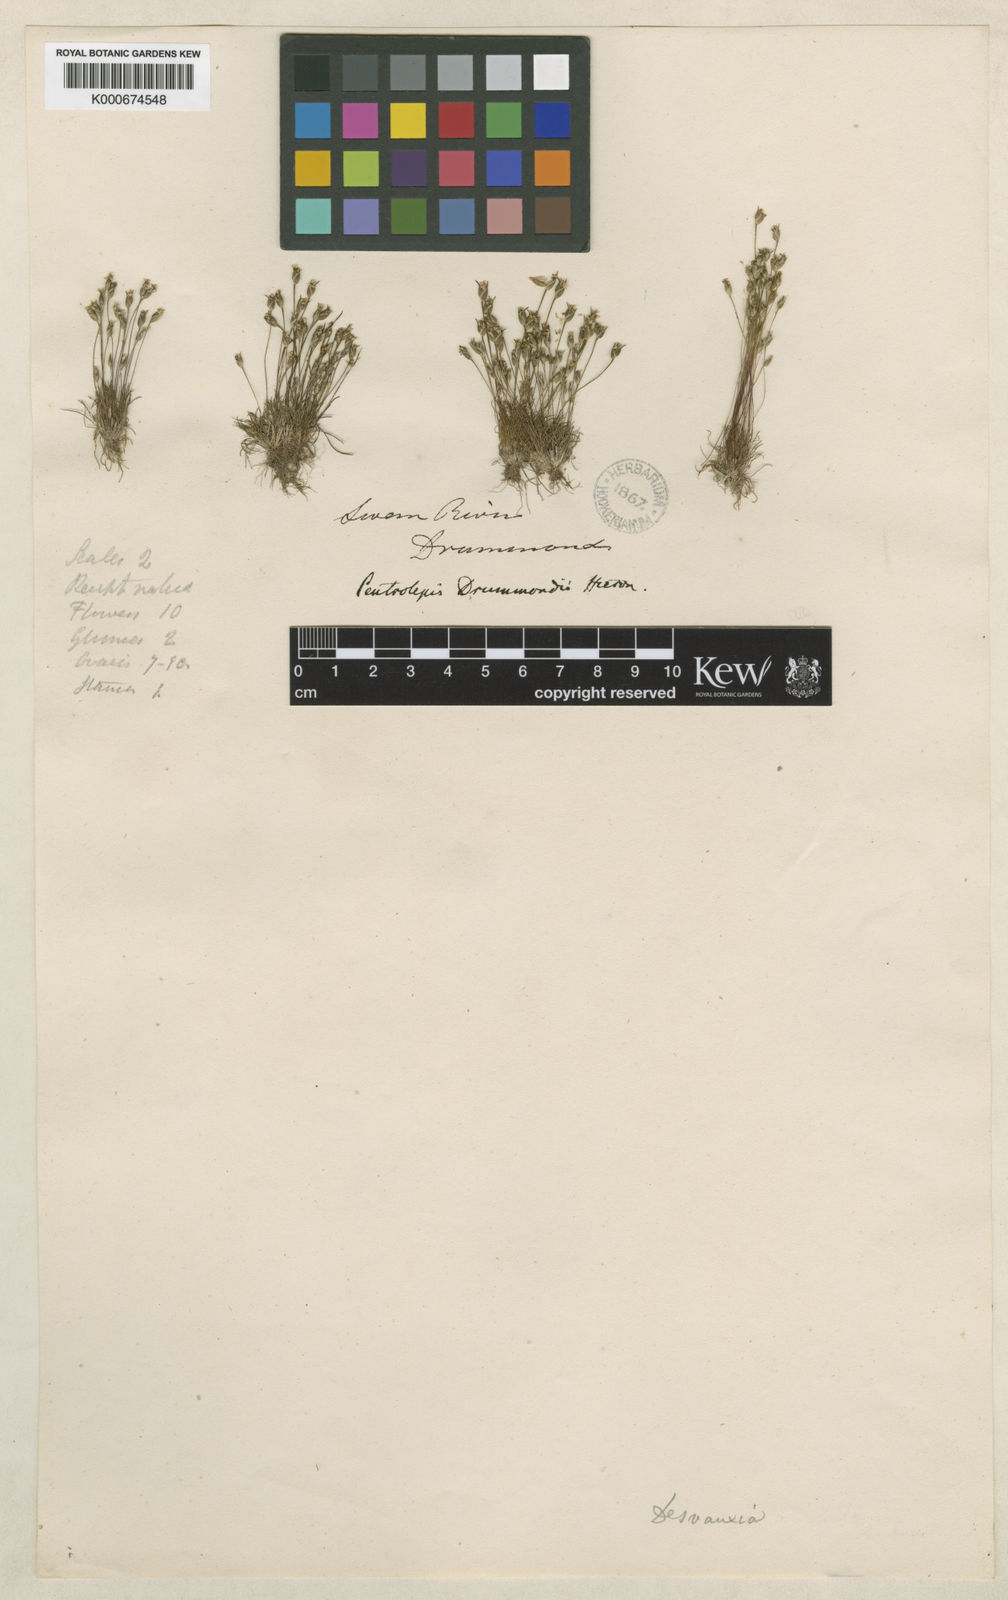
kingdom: Plantae
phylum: Tracheophyta
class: Liliopsida
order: Poales
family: Restionaceae
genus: Centrolepis
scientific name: Centrolepis
